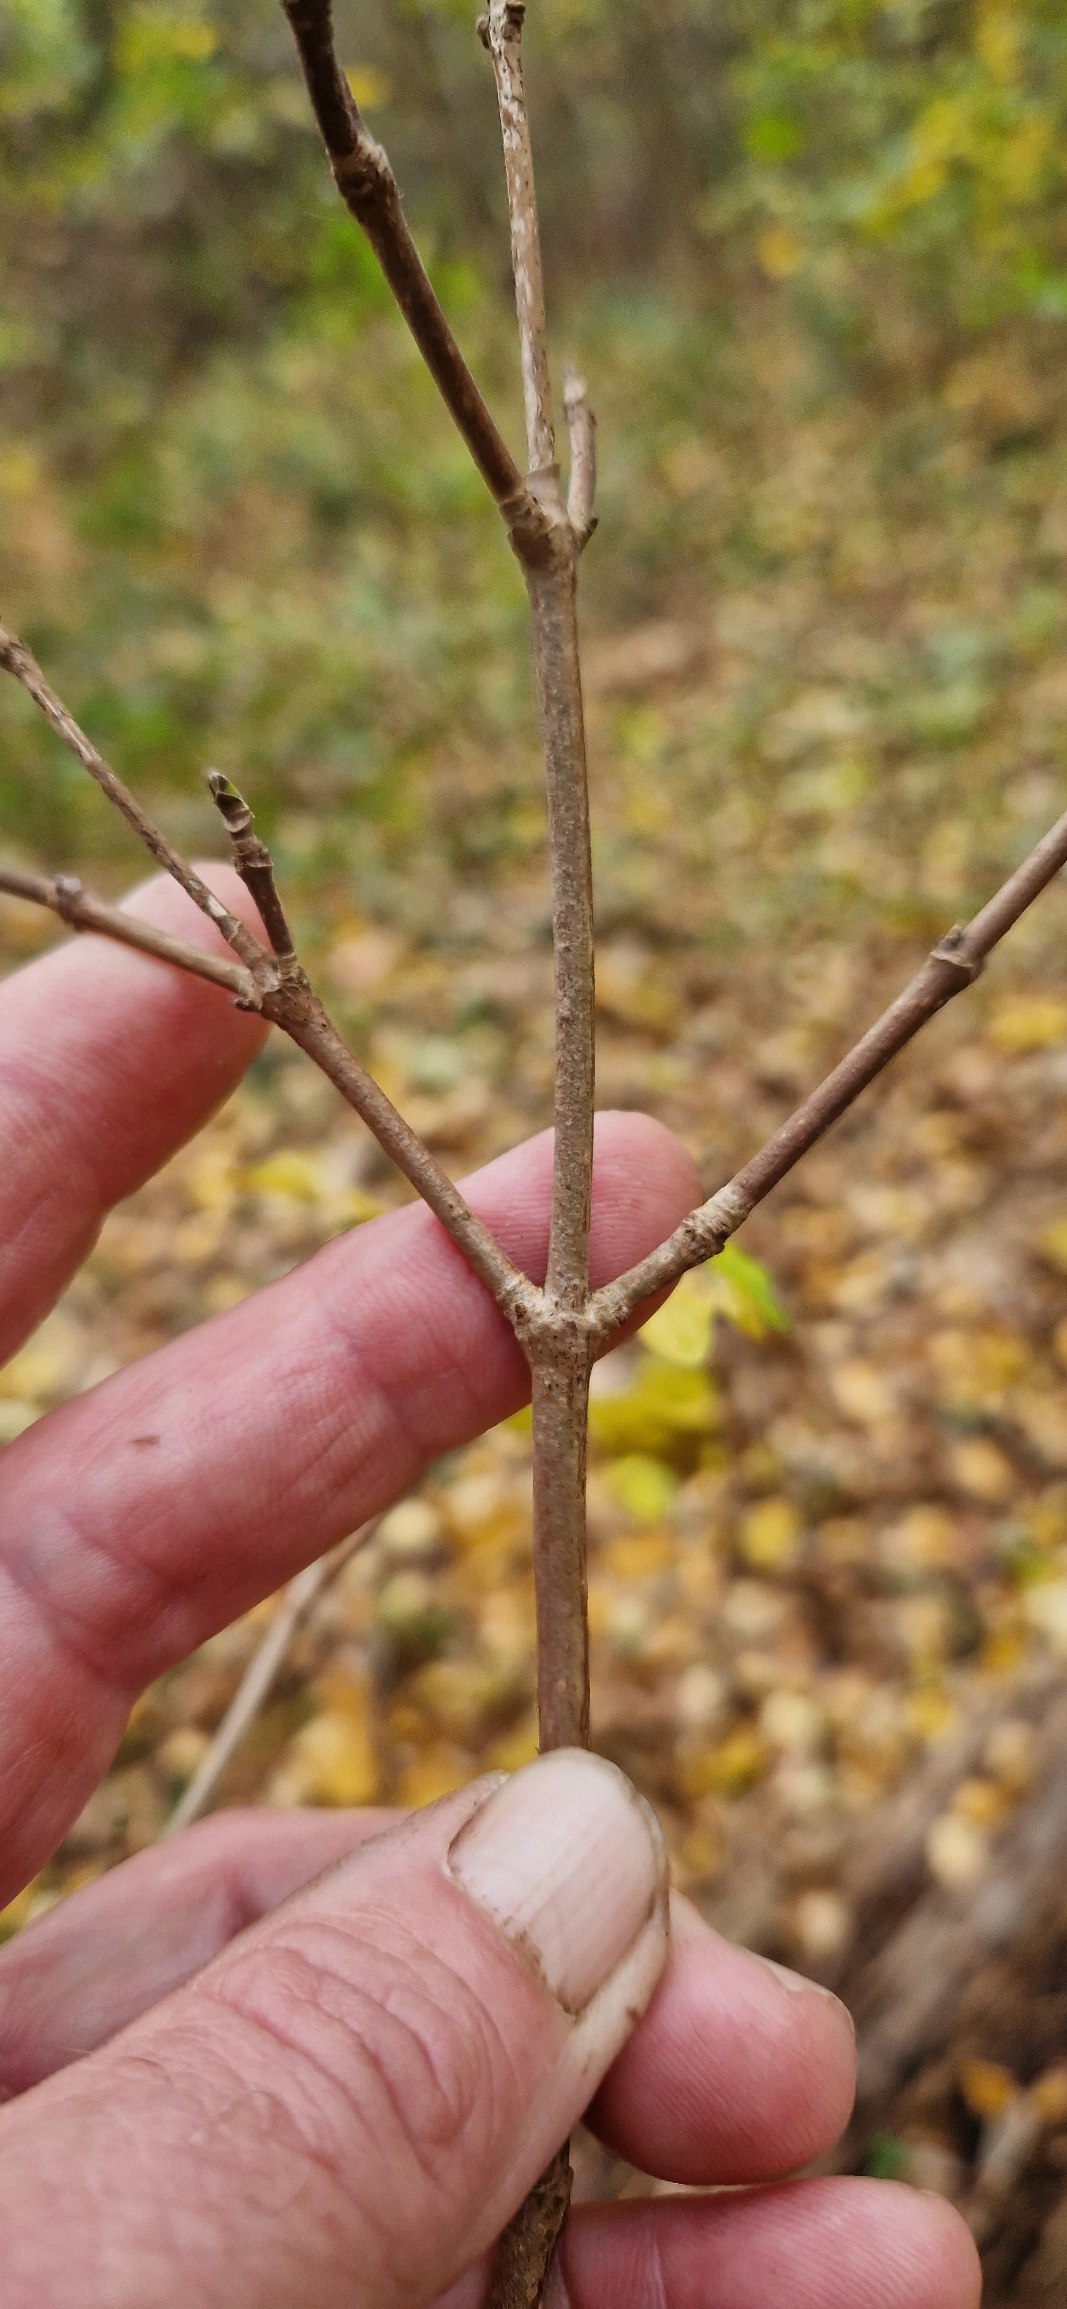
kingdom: Plantae
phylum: Tracheophyta
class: Magnoliopsida
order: Sapindales
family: Sapindaceae
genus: Acer
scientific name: Acer campestre
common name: Navr
